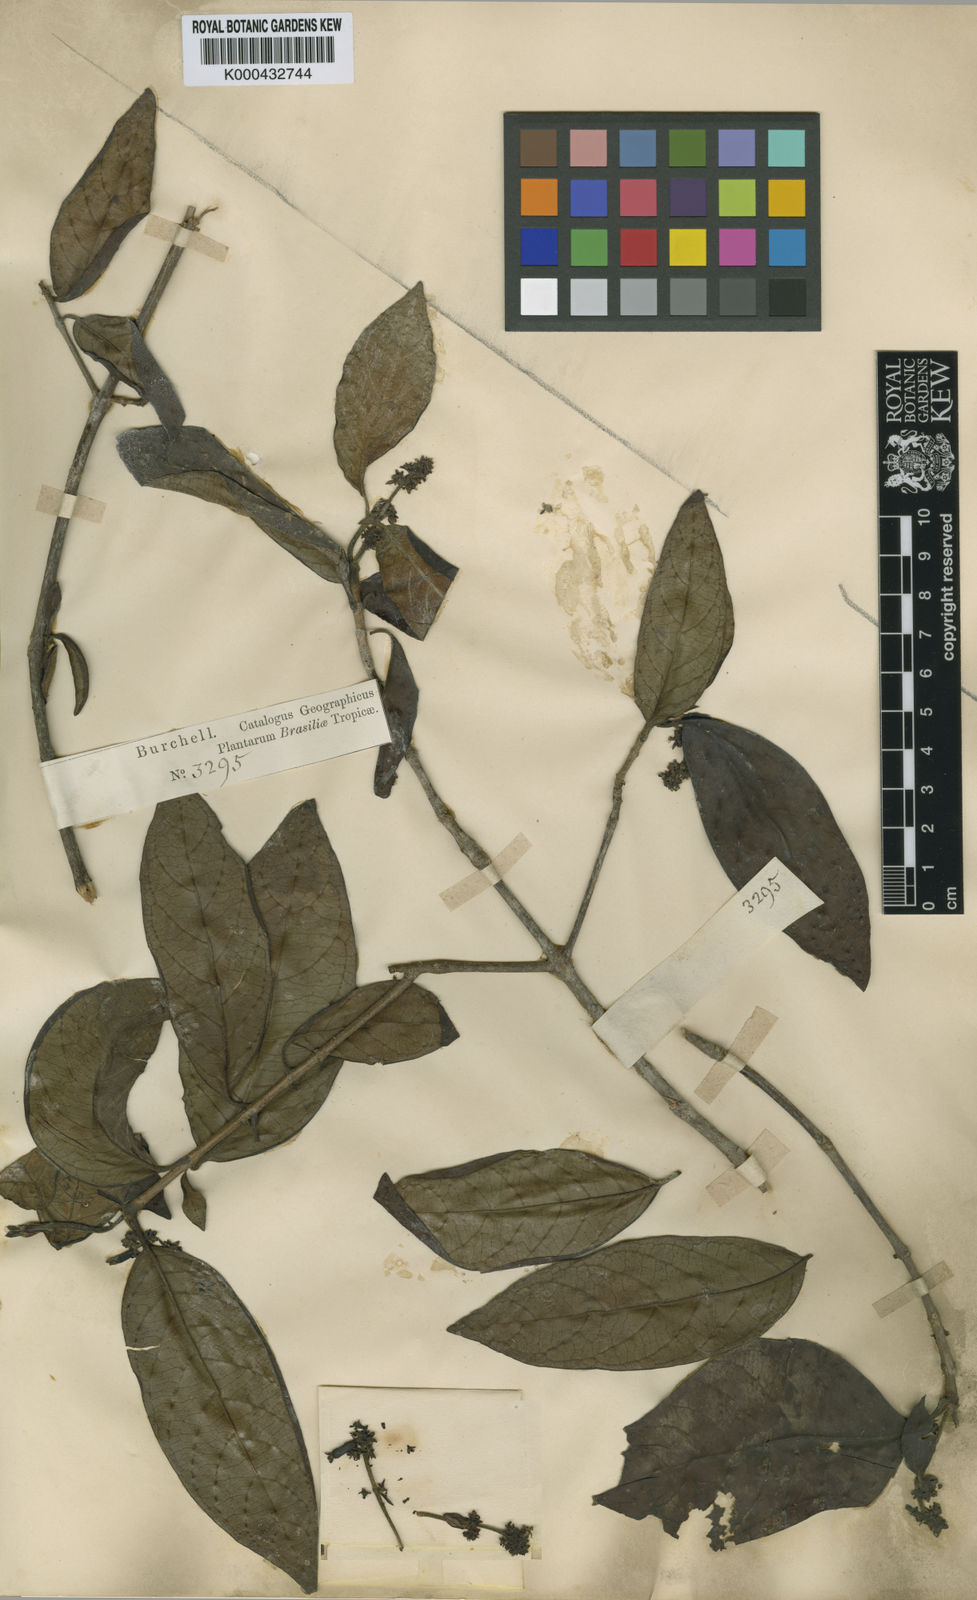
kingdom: Plantae
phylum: Tracheophyta
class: Magnoliopsida
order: Gentianales
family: Rubiaceae
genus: Malanea
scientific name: Malanea
